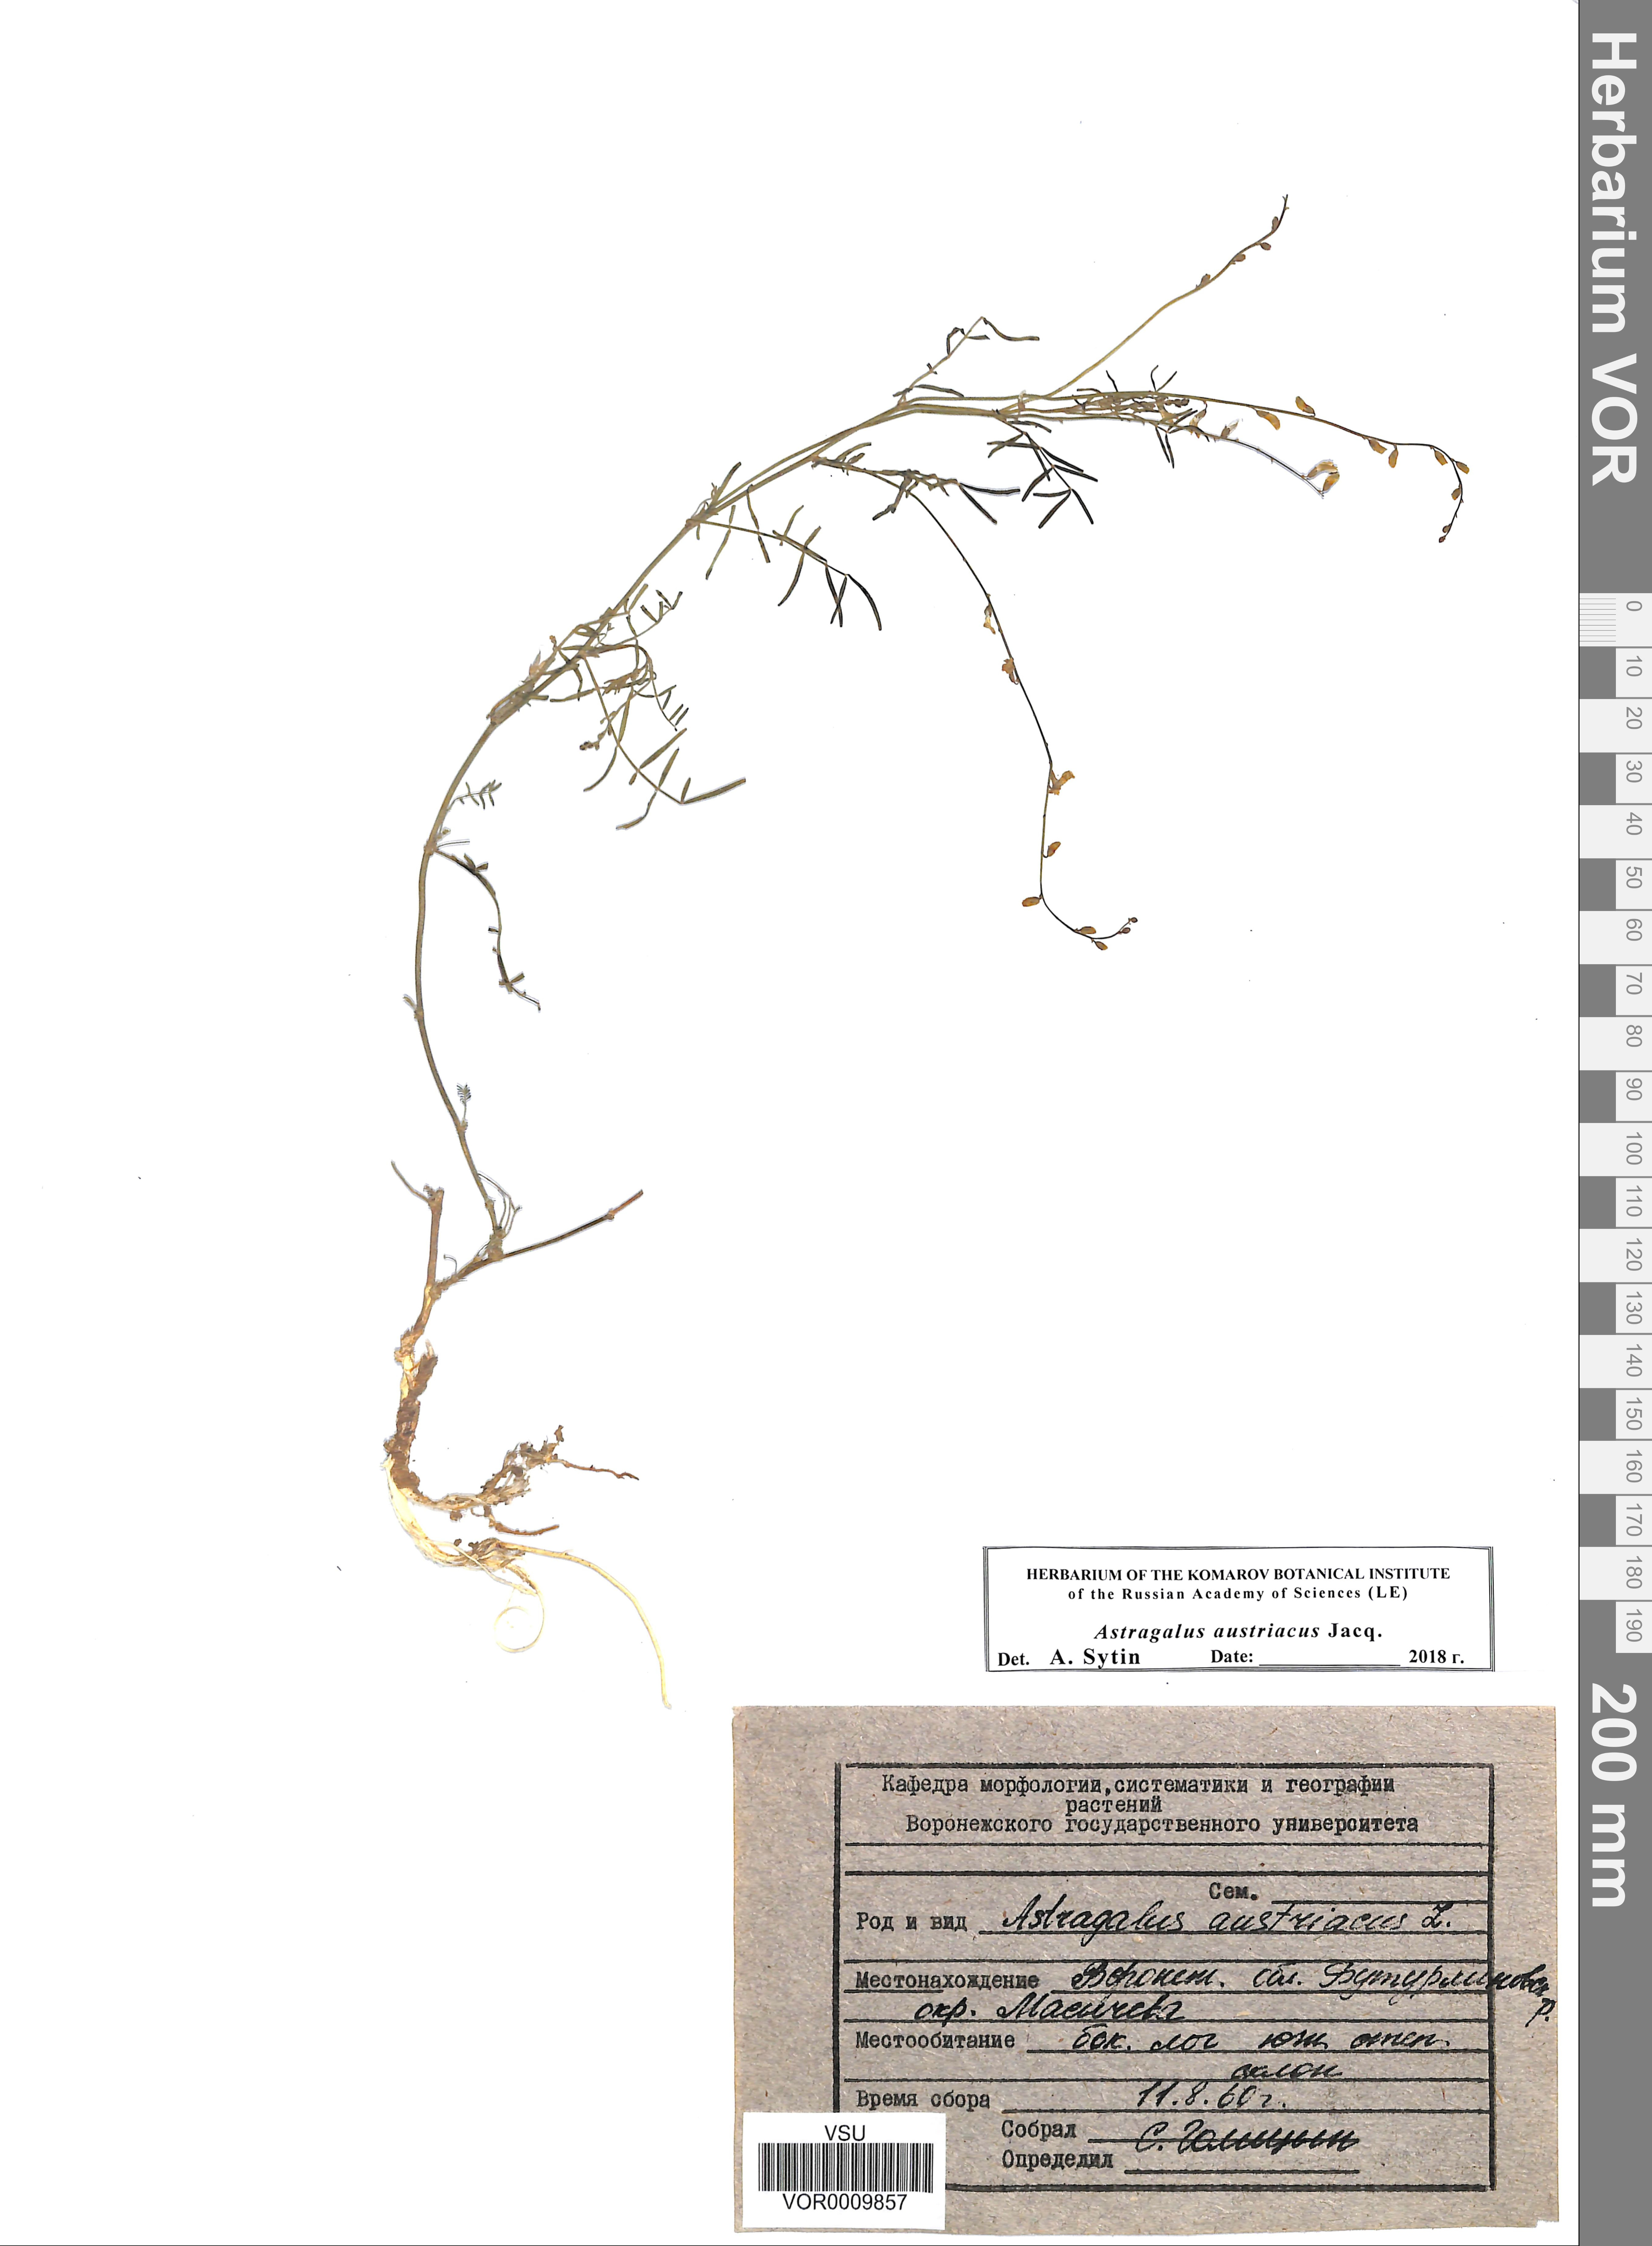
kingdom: Plantae
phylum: Tracheophyta
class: Magnoliopsida
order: Fabales
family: Fabaceae
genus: Astragalus
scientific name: Astragalus austriacus
